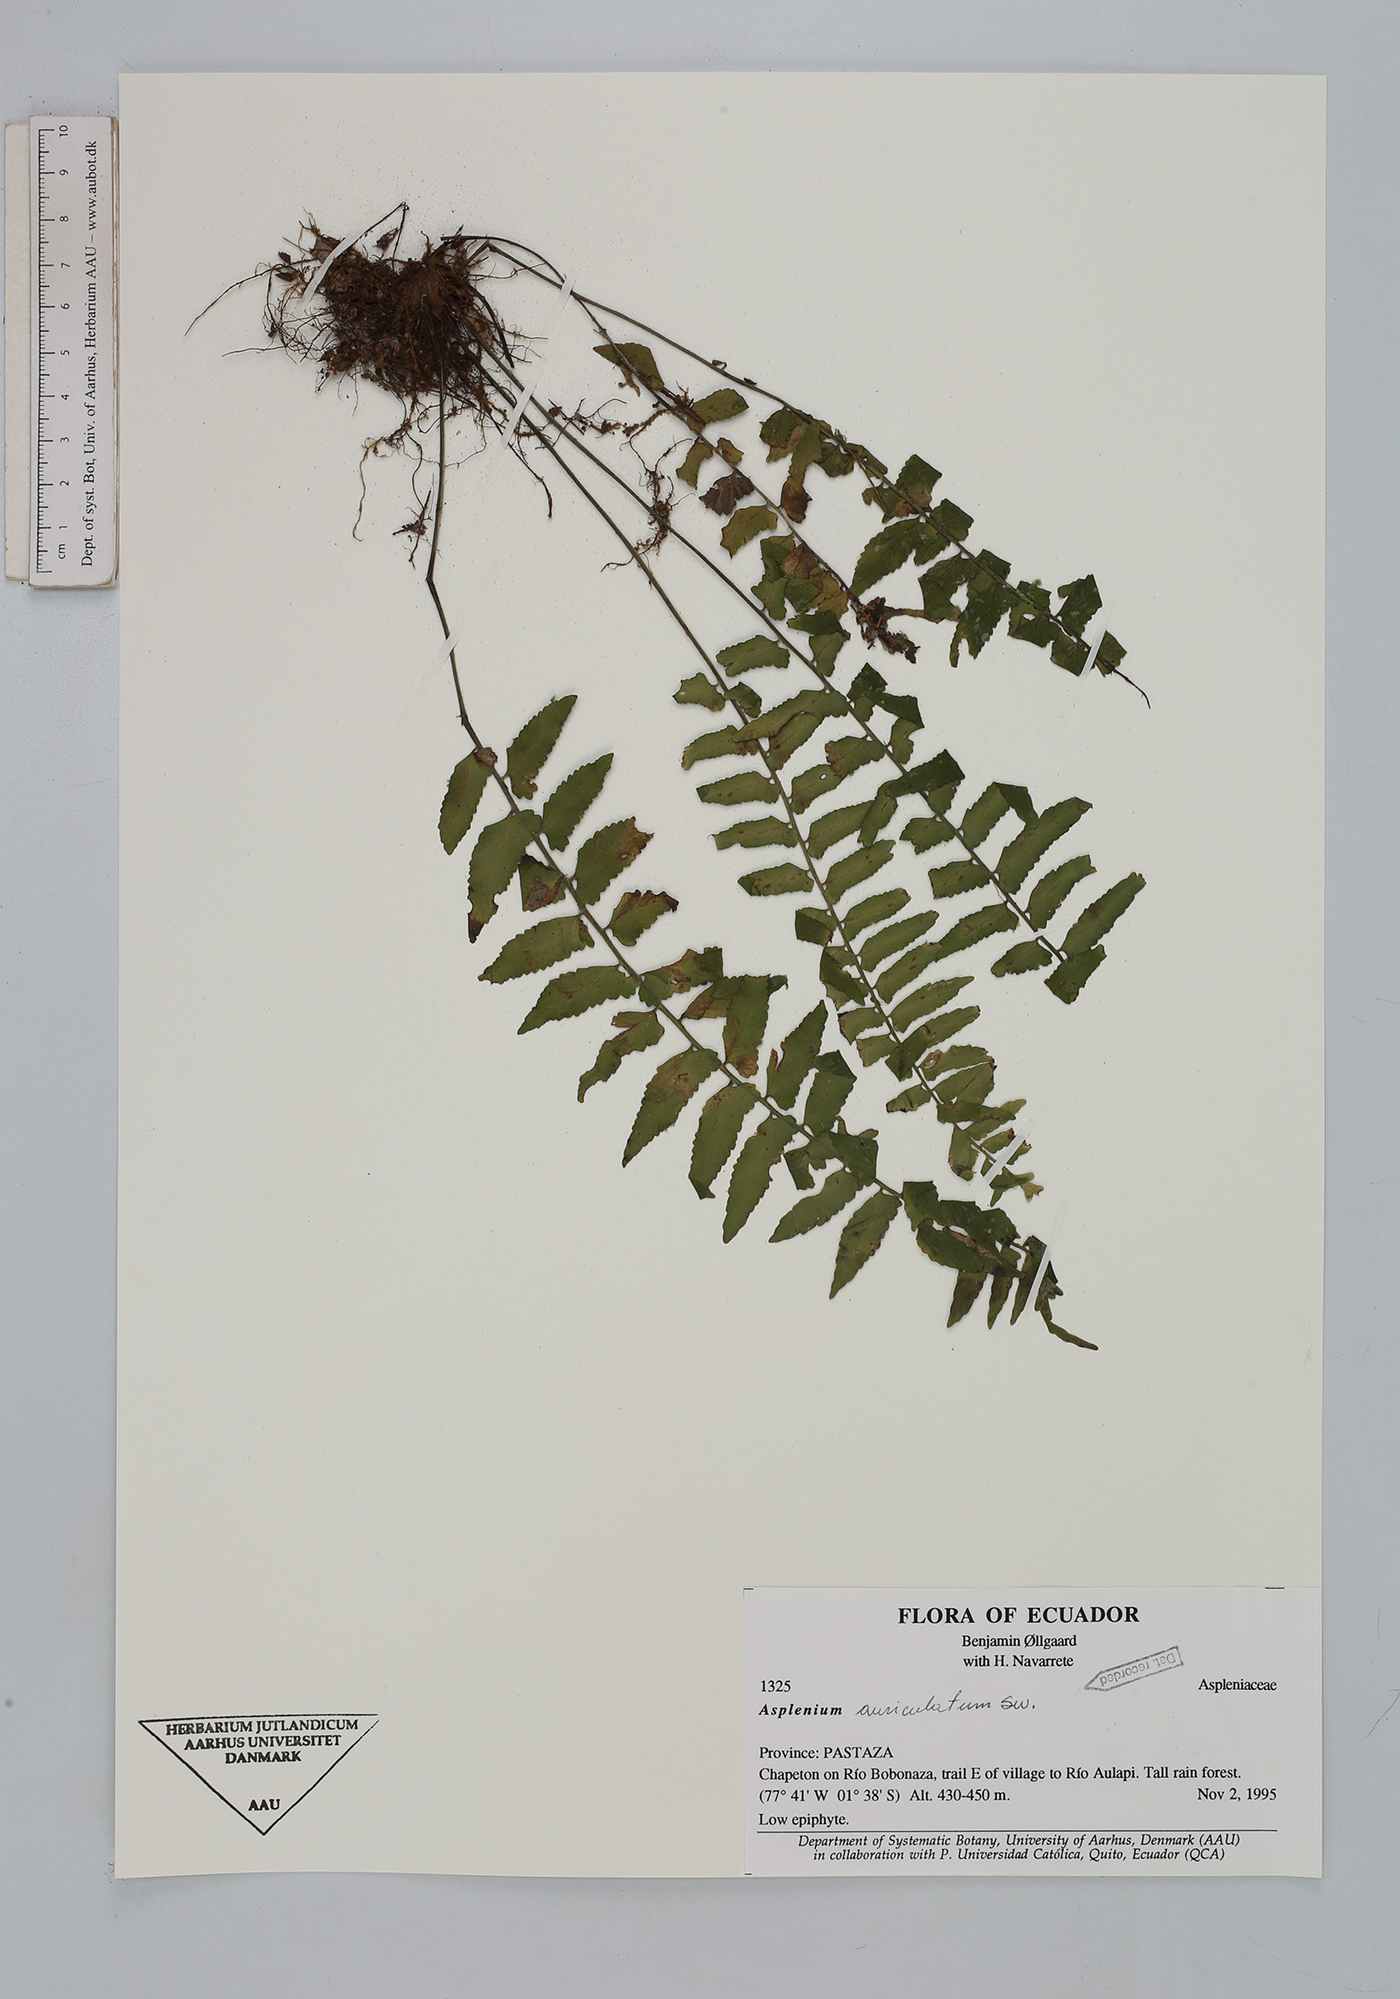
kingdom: Plantae
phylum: Tracheophyta
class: Polypodiopsida
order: Polypodiales
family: Aspleniaceae
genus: Asplenium
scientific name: Asplenium auriculatum
